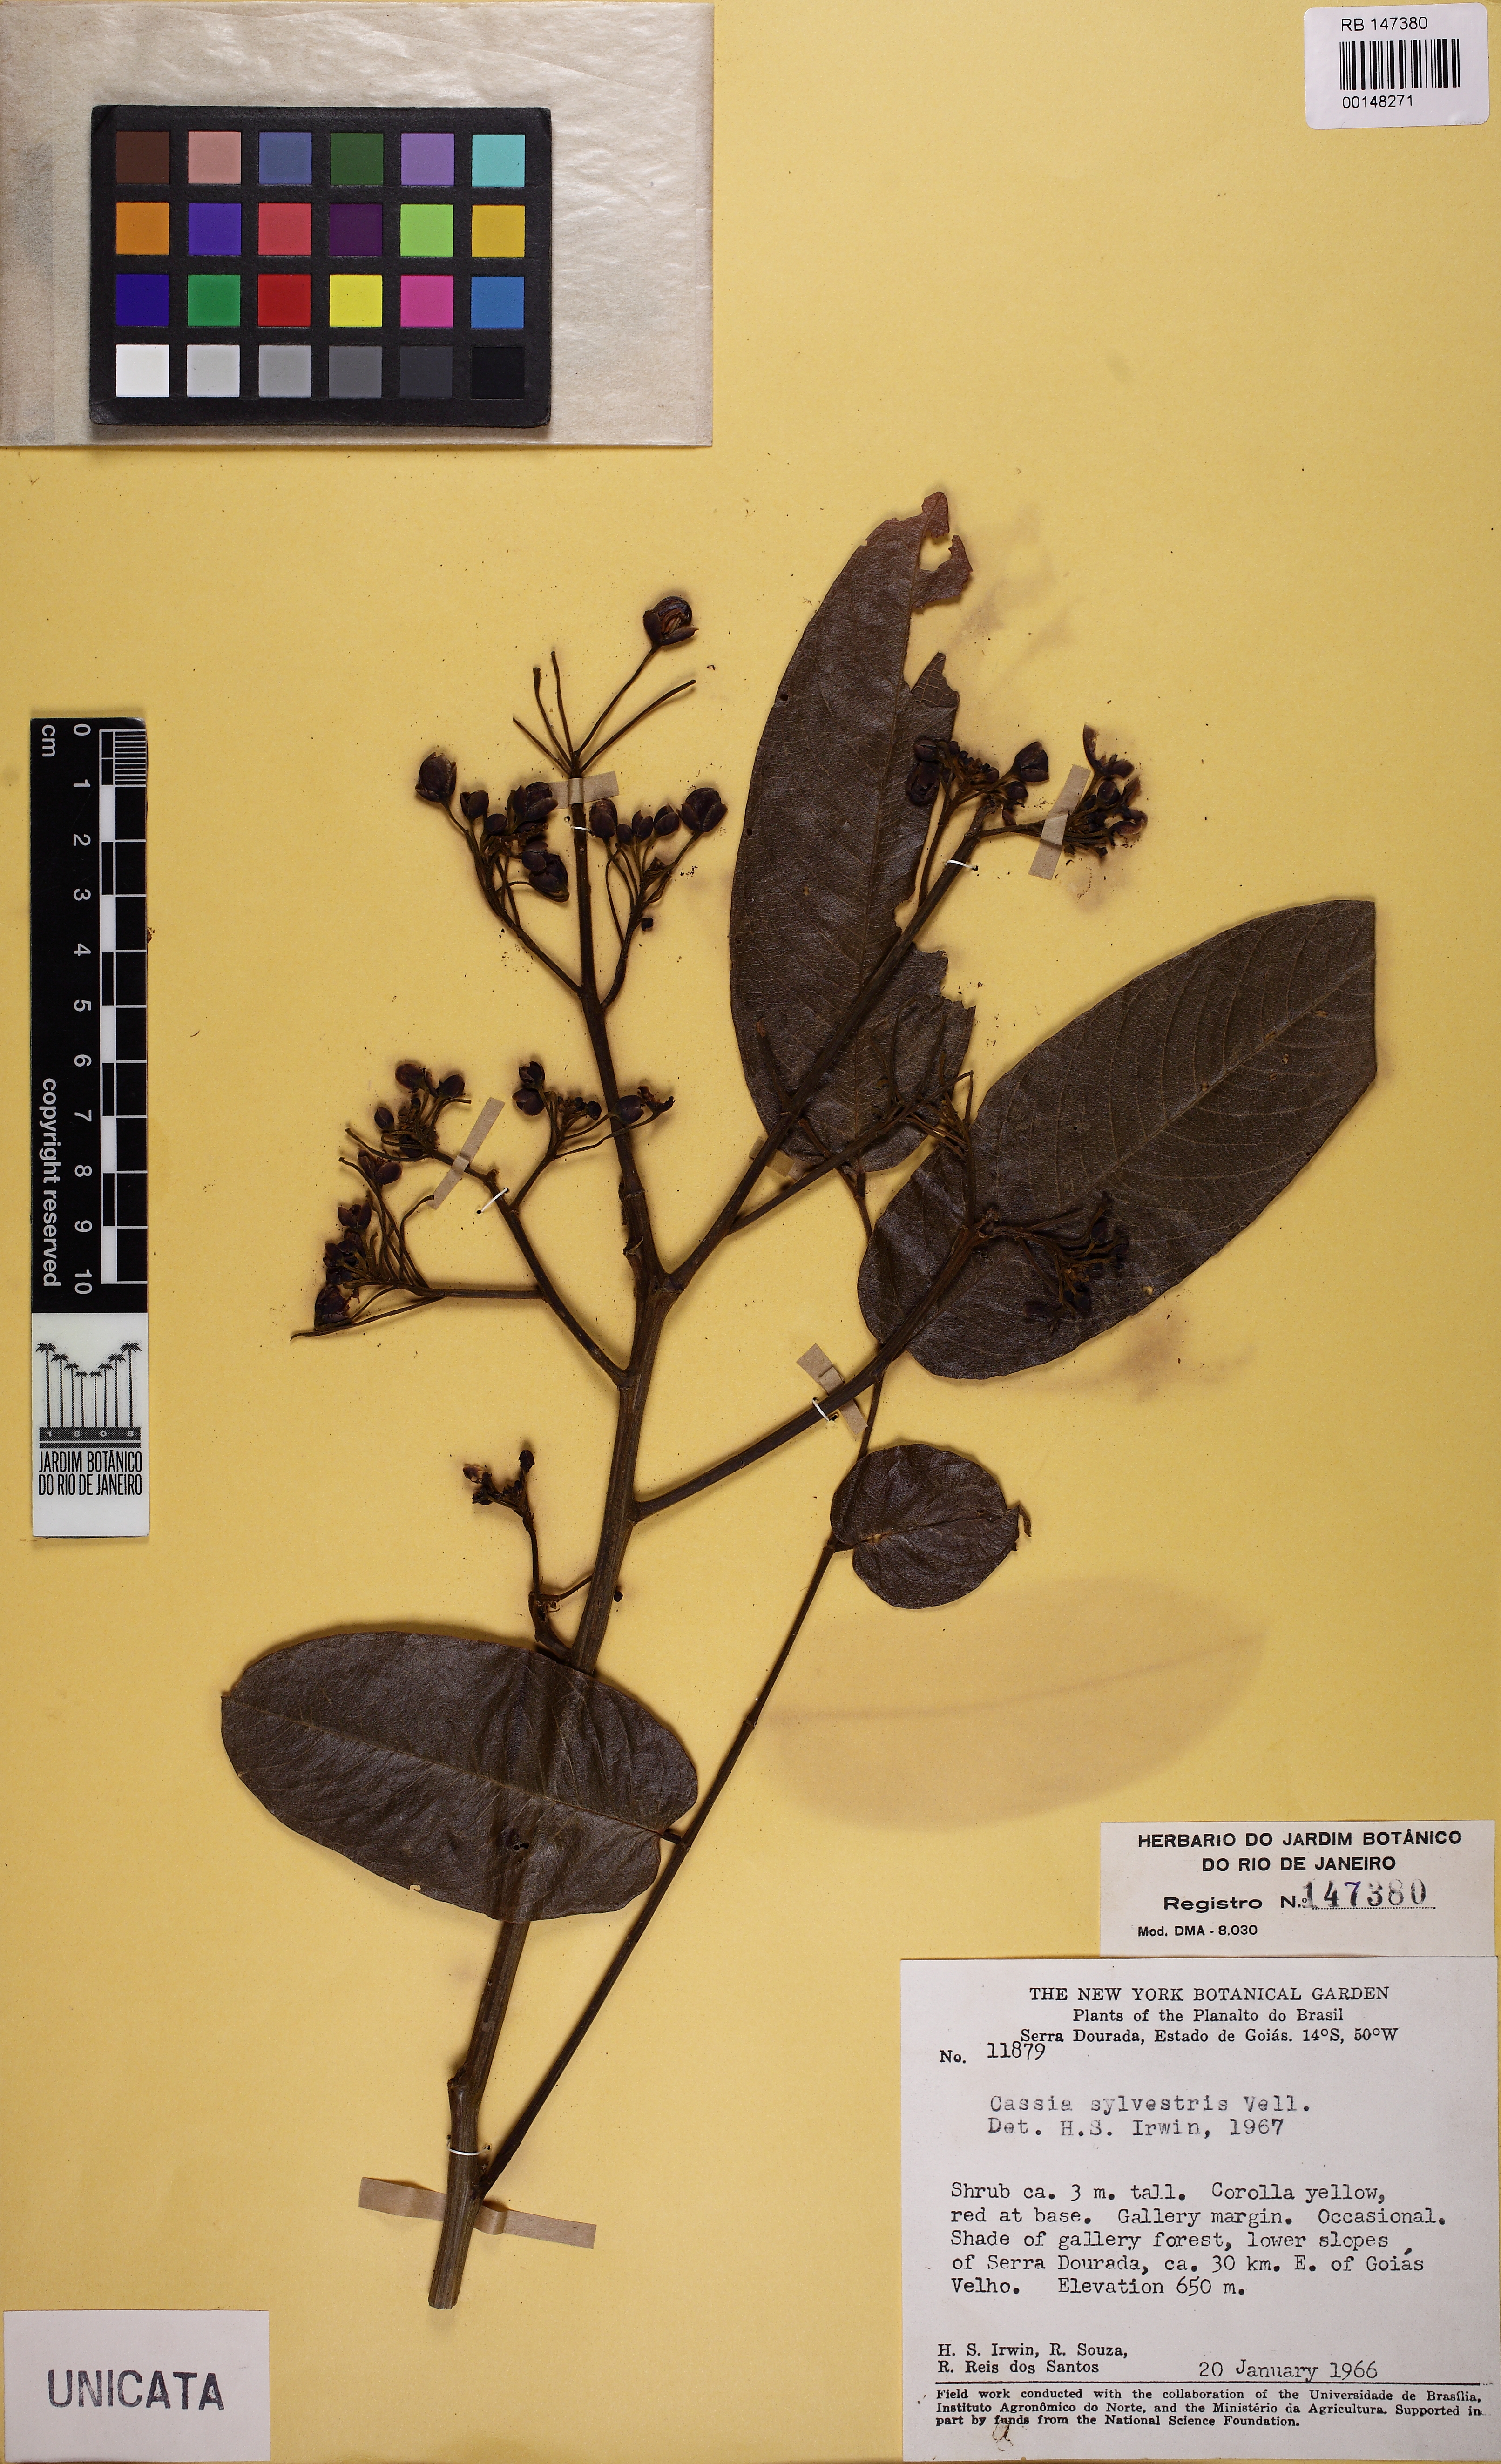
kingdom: Plantae
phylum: Tracheophyta
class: Magnoliopsida
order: Fabales
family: Fabaceae
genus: Senna
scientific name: Senna silvestris
